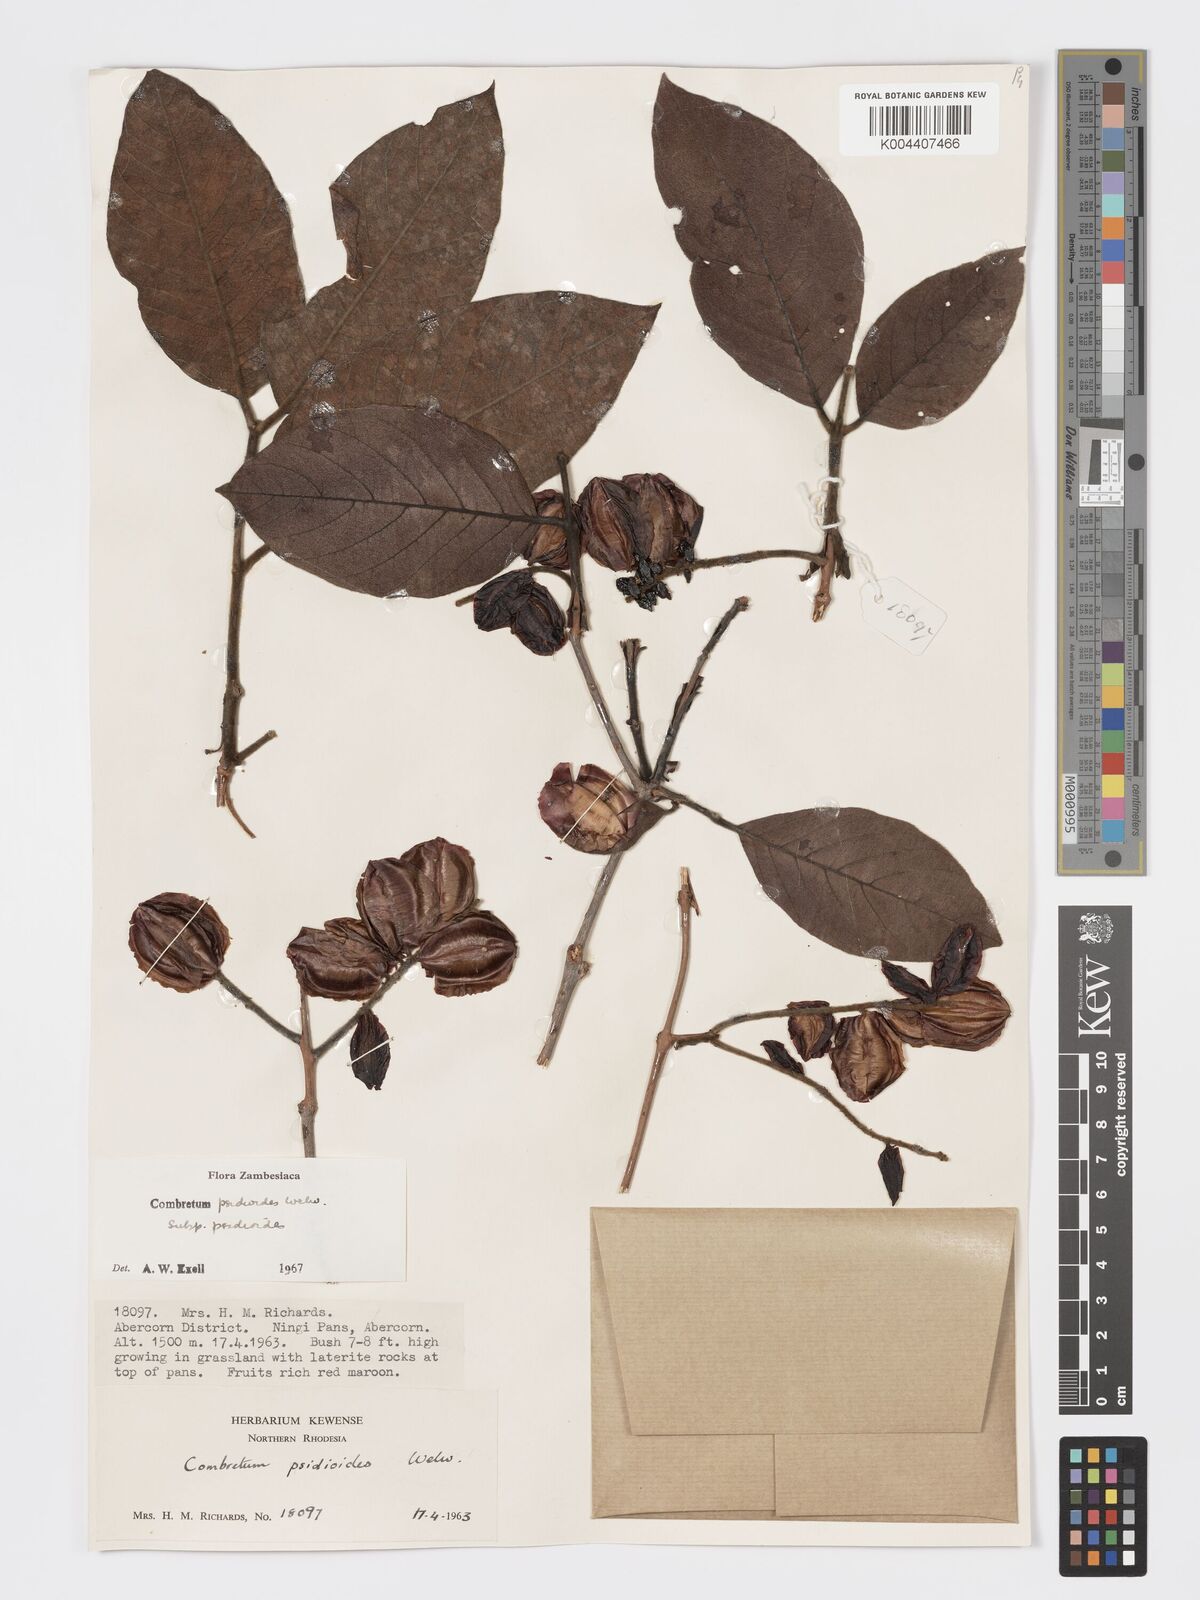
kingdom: Plantae
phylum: Tracheophyta
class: Magnoliopsida
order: Myrtales
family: Combretaceae
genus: Combretum
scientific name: Combretum psidioides
